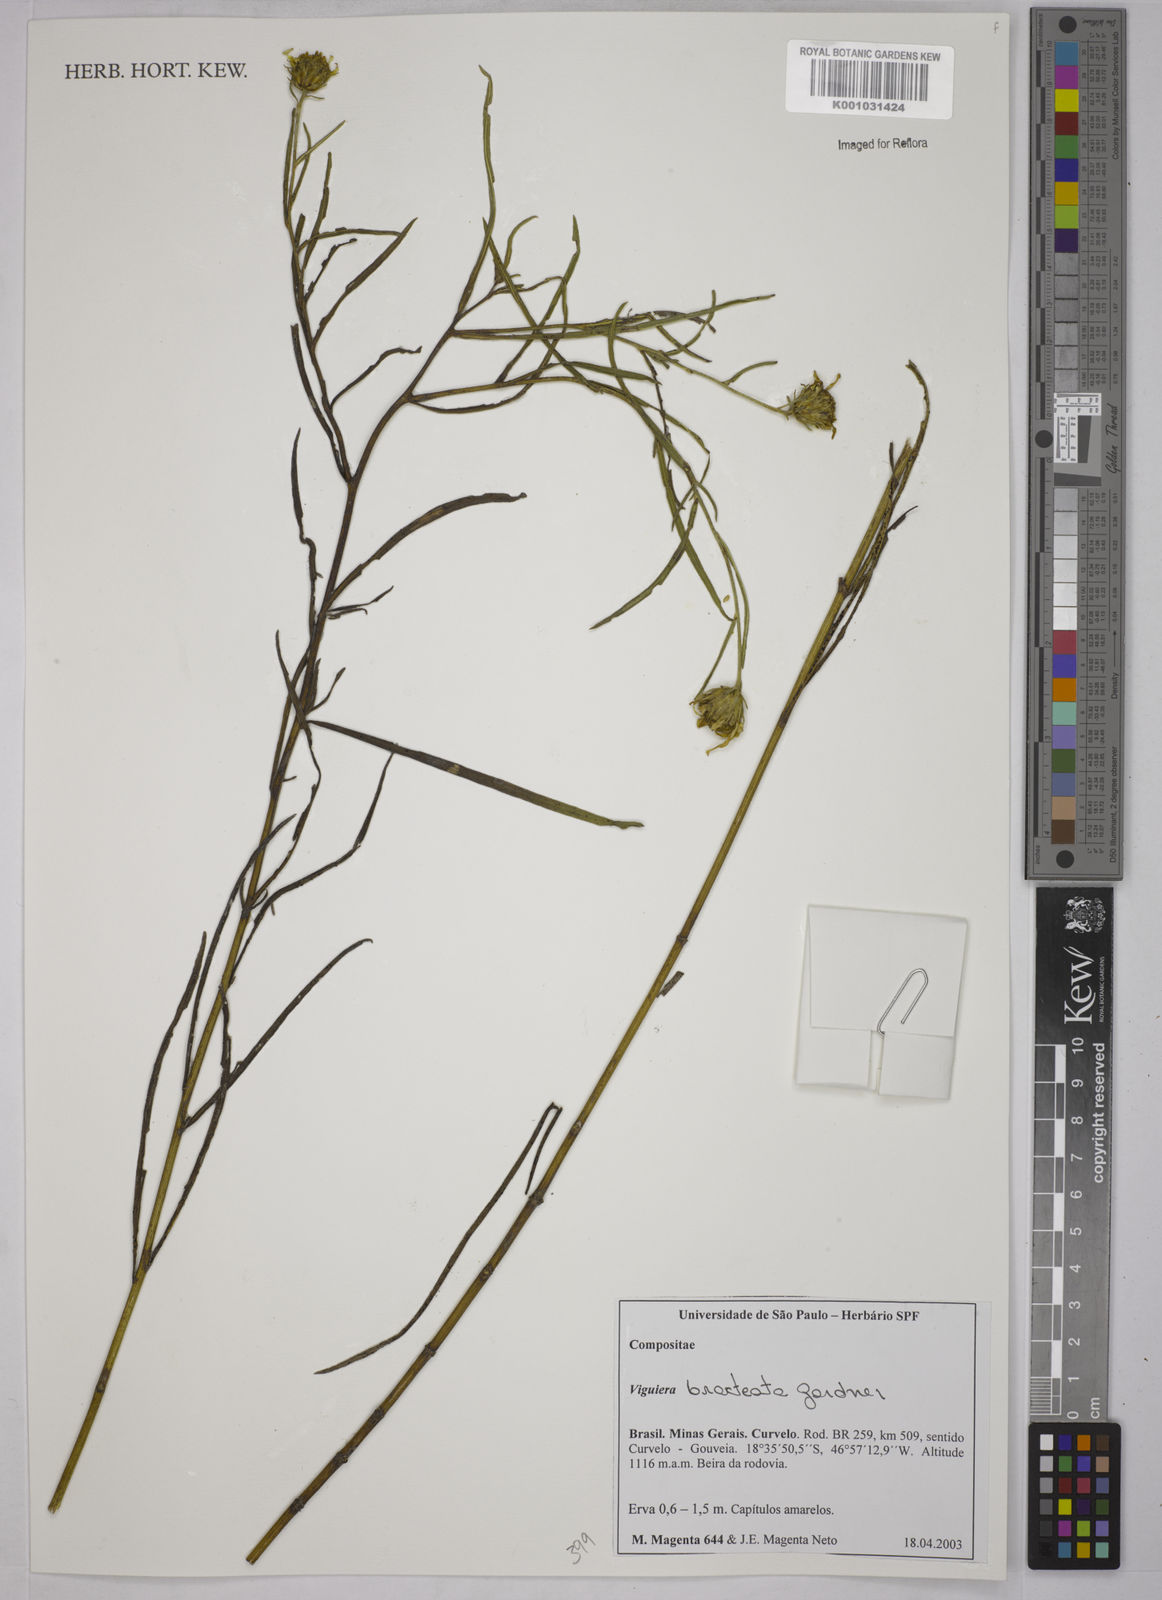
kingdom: Plantae
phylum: Tracheophyta
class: Magnoliopsida
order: Asterales
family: Asteraceae
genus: Aldama
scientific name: Aldama bracteata
